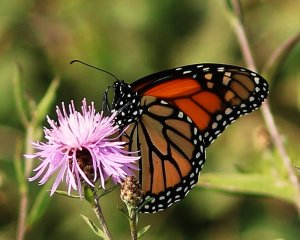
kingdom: Animalia
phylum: Arthropoda
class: Insecta
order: Lepidoptera
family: Nymphalidae
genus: Danaus
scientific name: Danaus plexippus
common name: Monarch
